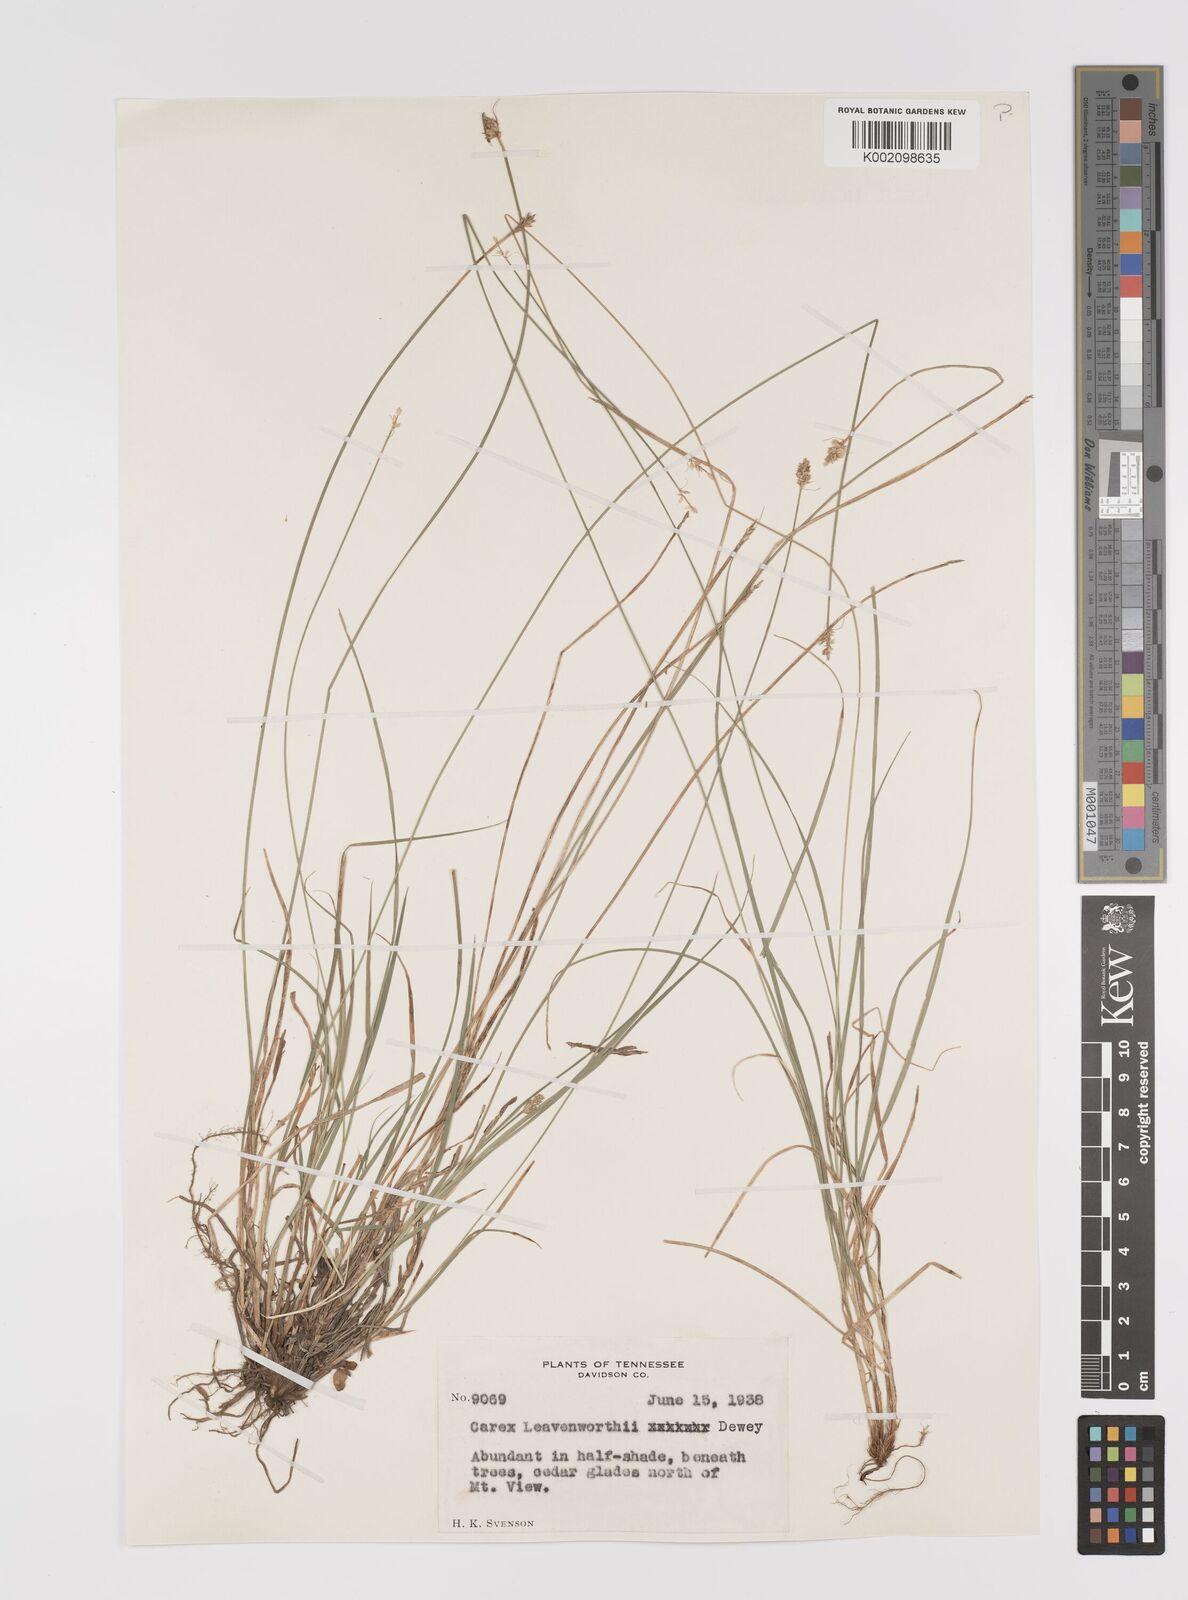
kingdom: Plantae
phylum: Tracheophyta
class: Liliopsida
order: Poales
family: Cyperaceae
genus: Carex
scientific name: Carex leavenworthii
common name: Leavenworth's bracted sedge
